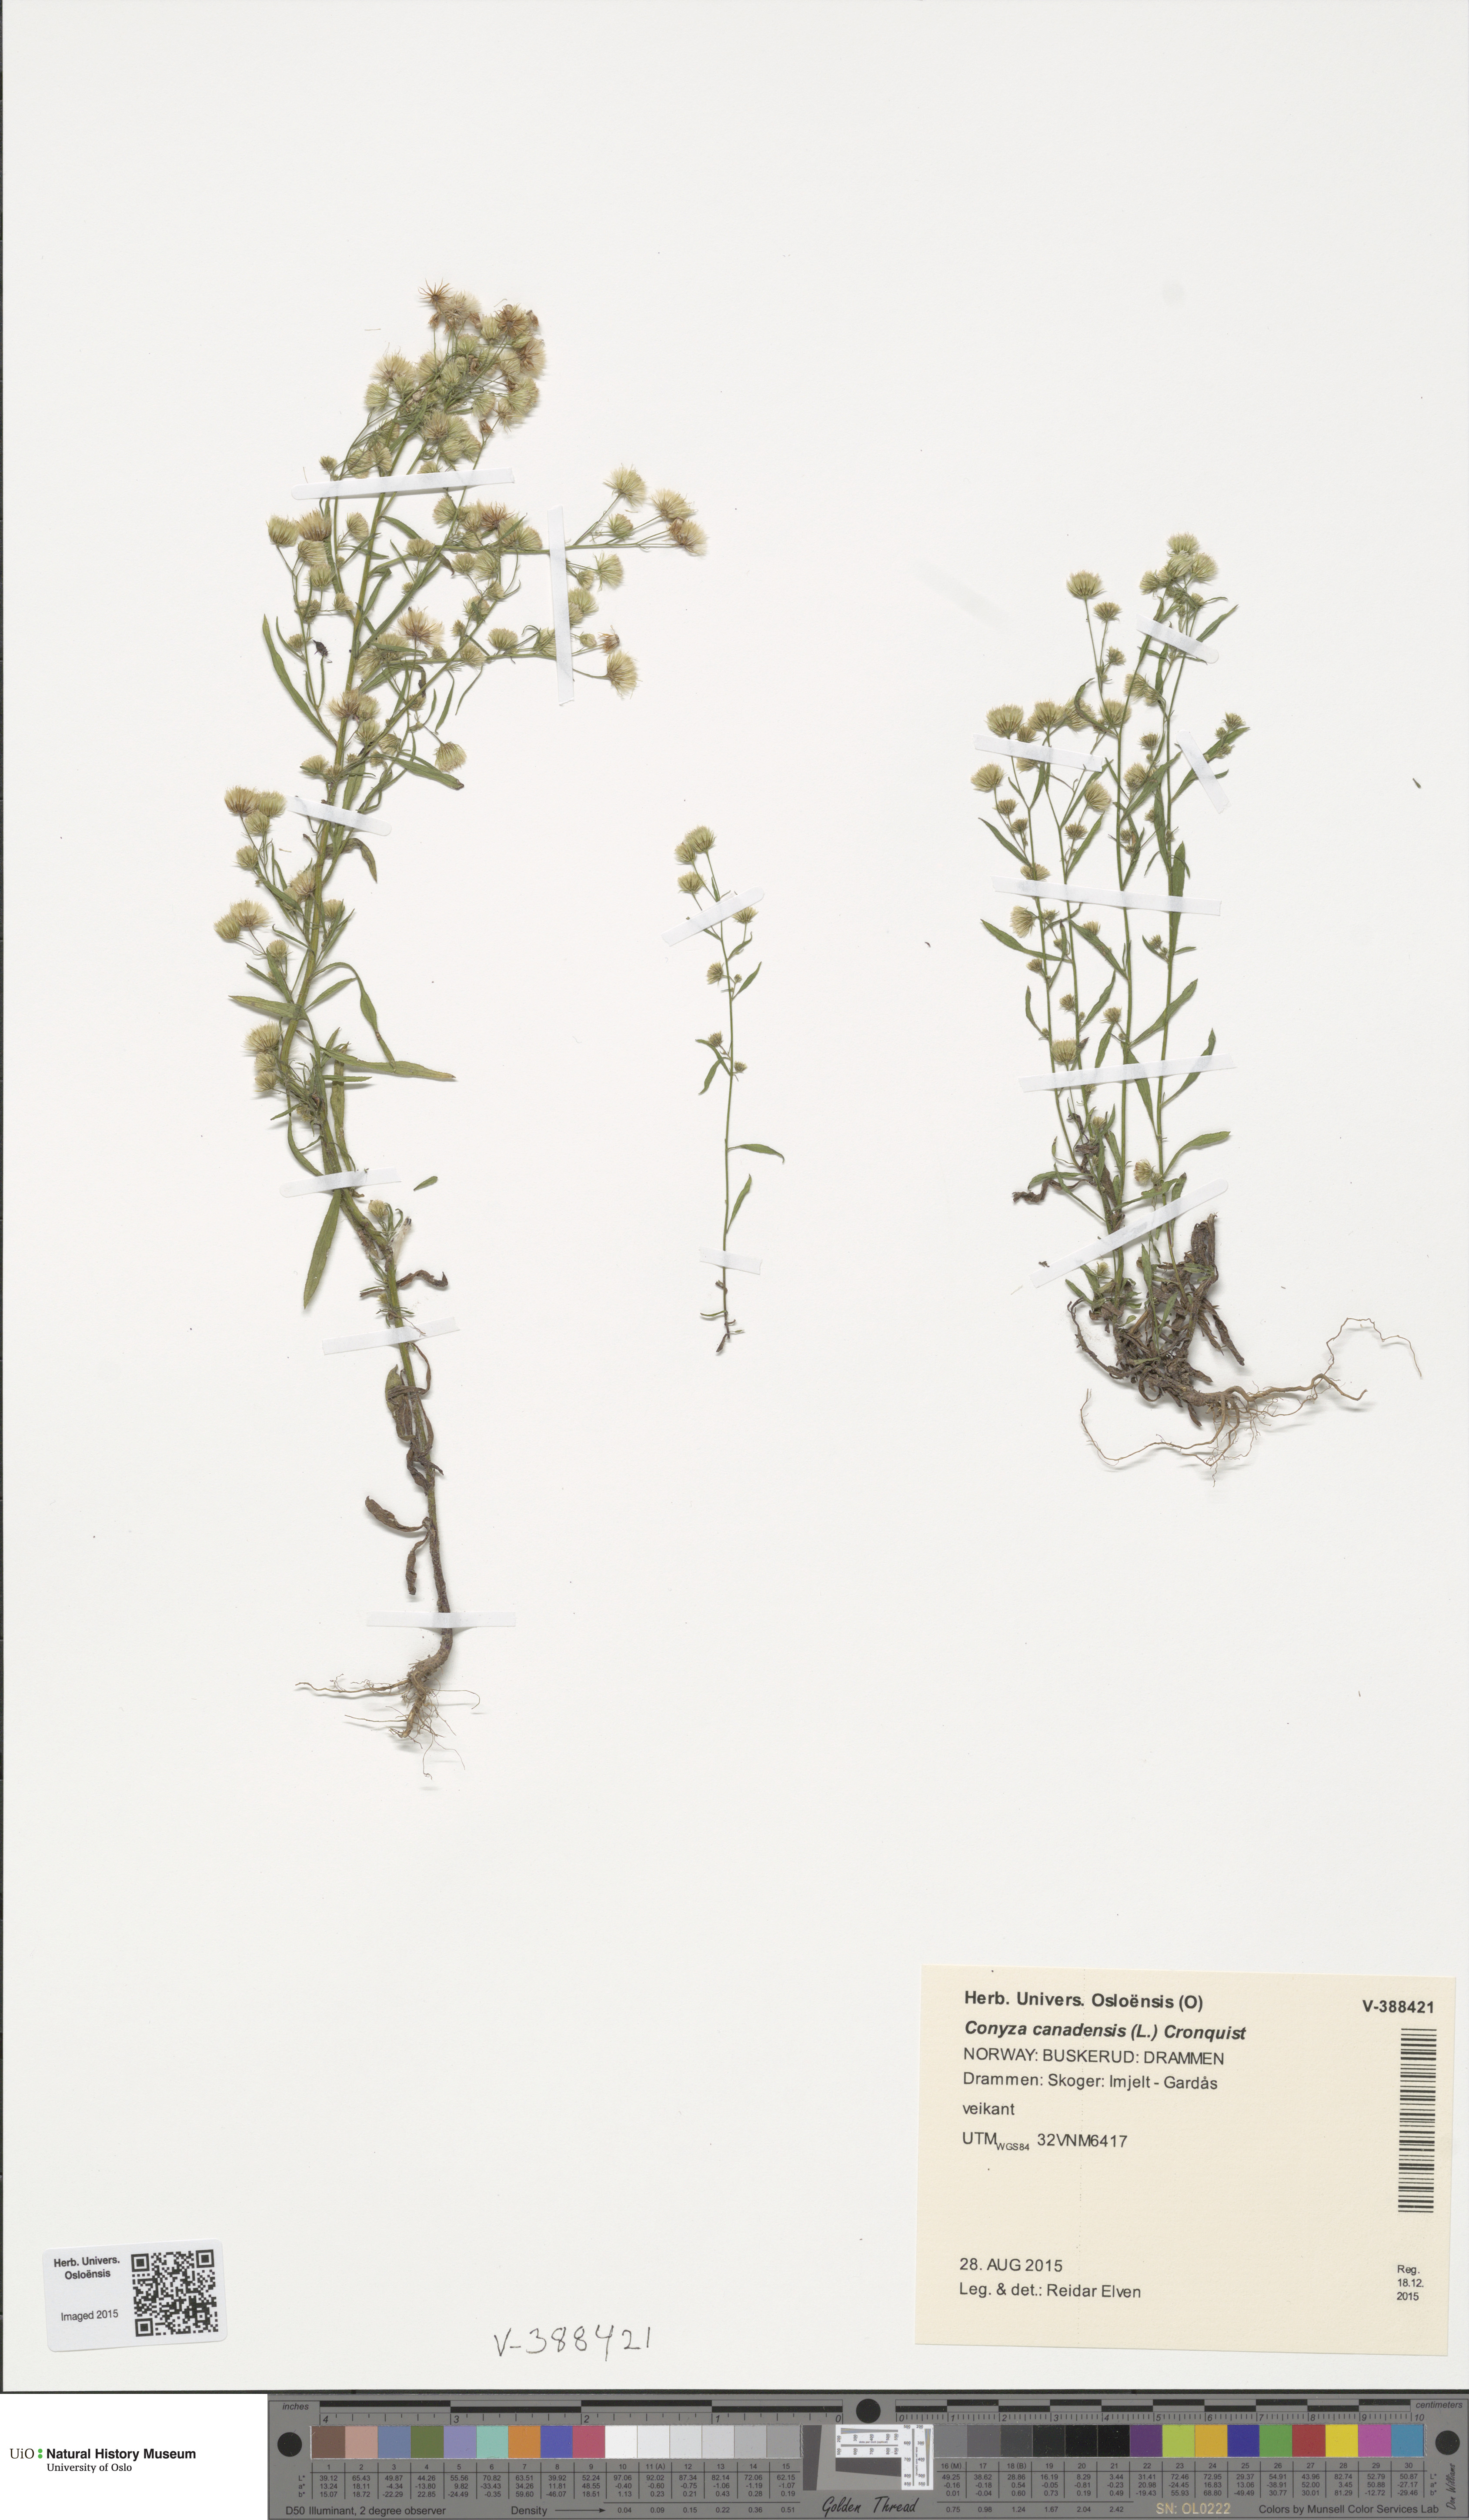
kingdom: Plantae
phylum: Tracheophyta
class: Magnoliopsida
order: Asterales
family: Asteraceae
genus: Erigeron
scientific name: Erigeron canadensis
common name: Canadian fleabane
